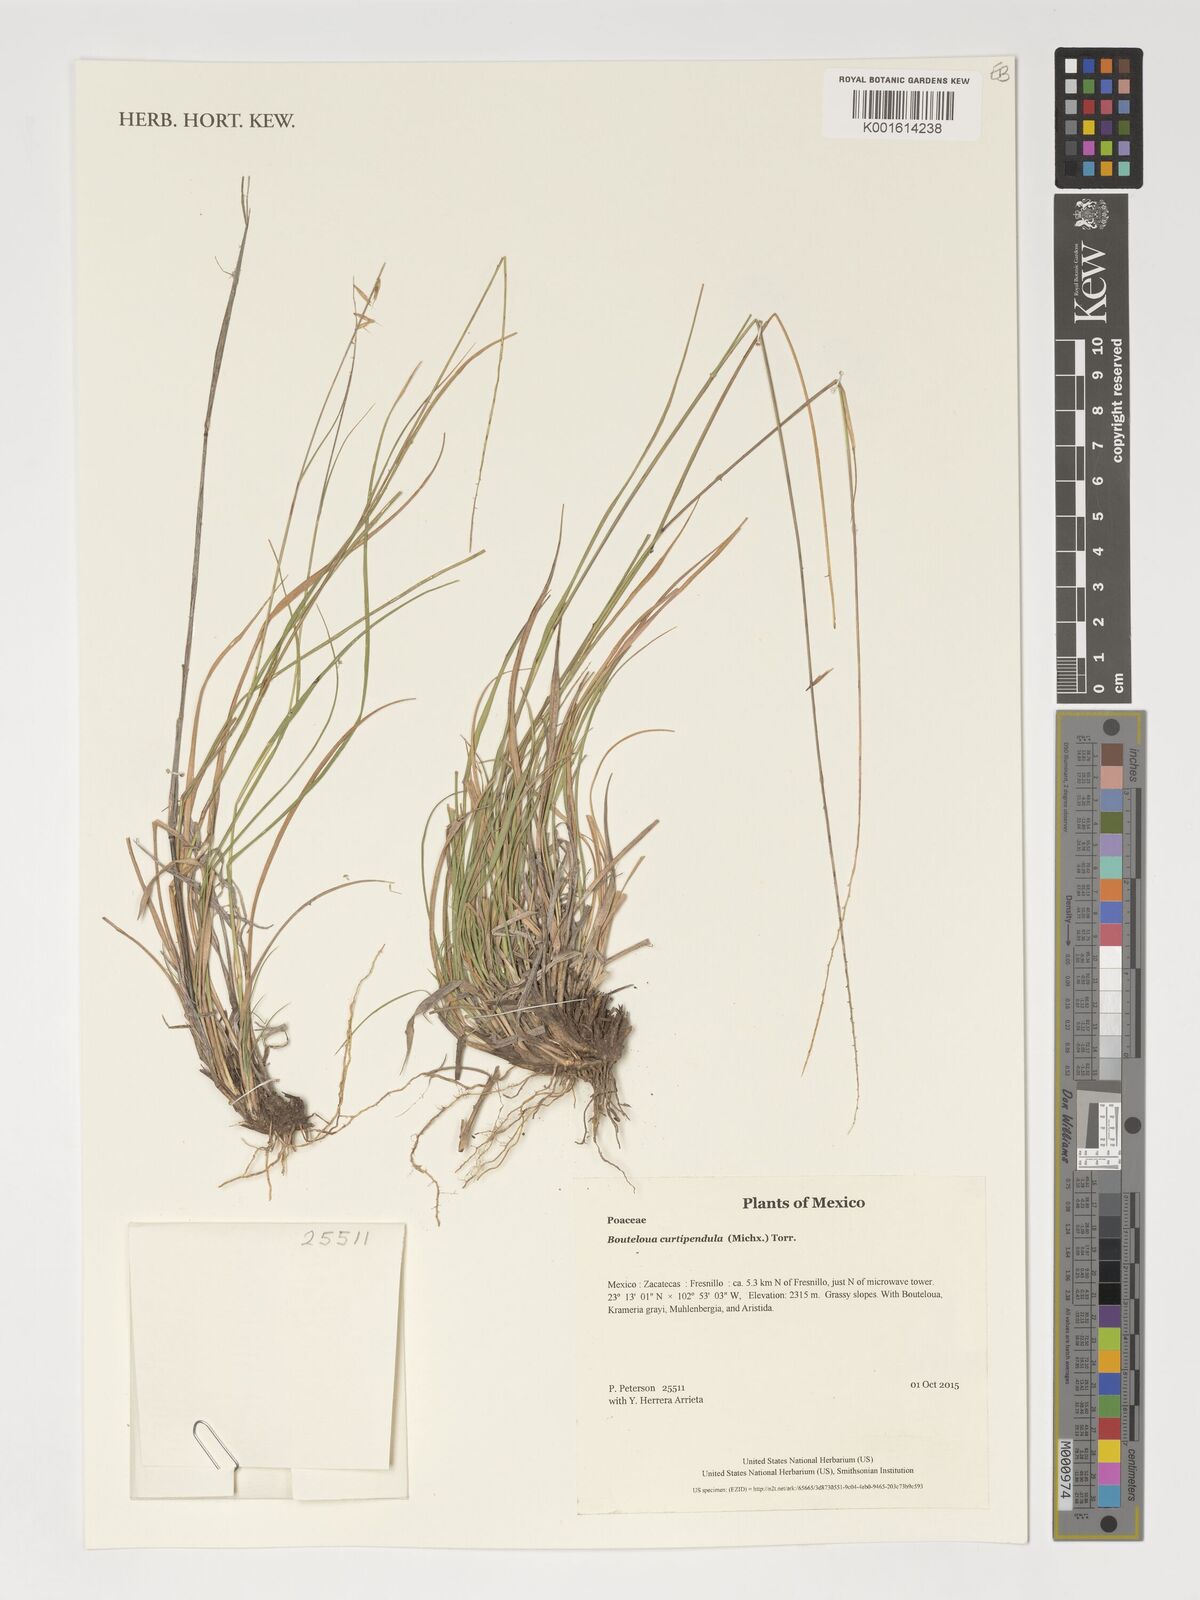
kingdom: Plantae
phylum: Tracheophyta
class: Liliopsida
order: Poales
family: Poaceae
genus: Bouteloua
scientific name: Bouteloua curtipendula
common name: Side-oats grama
